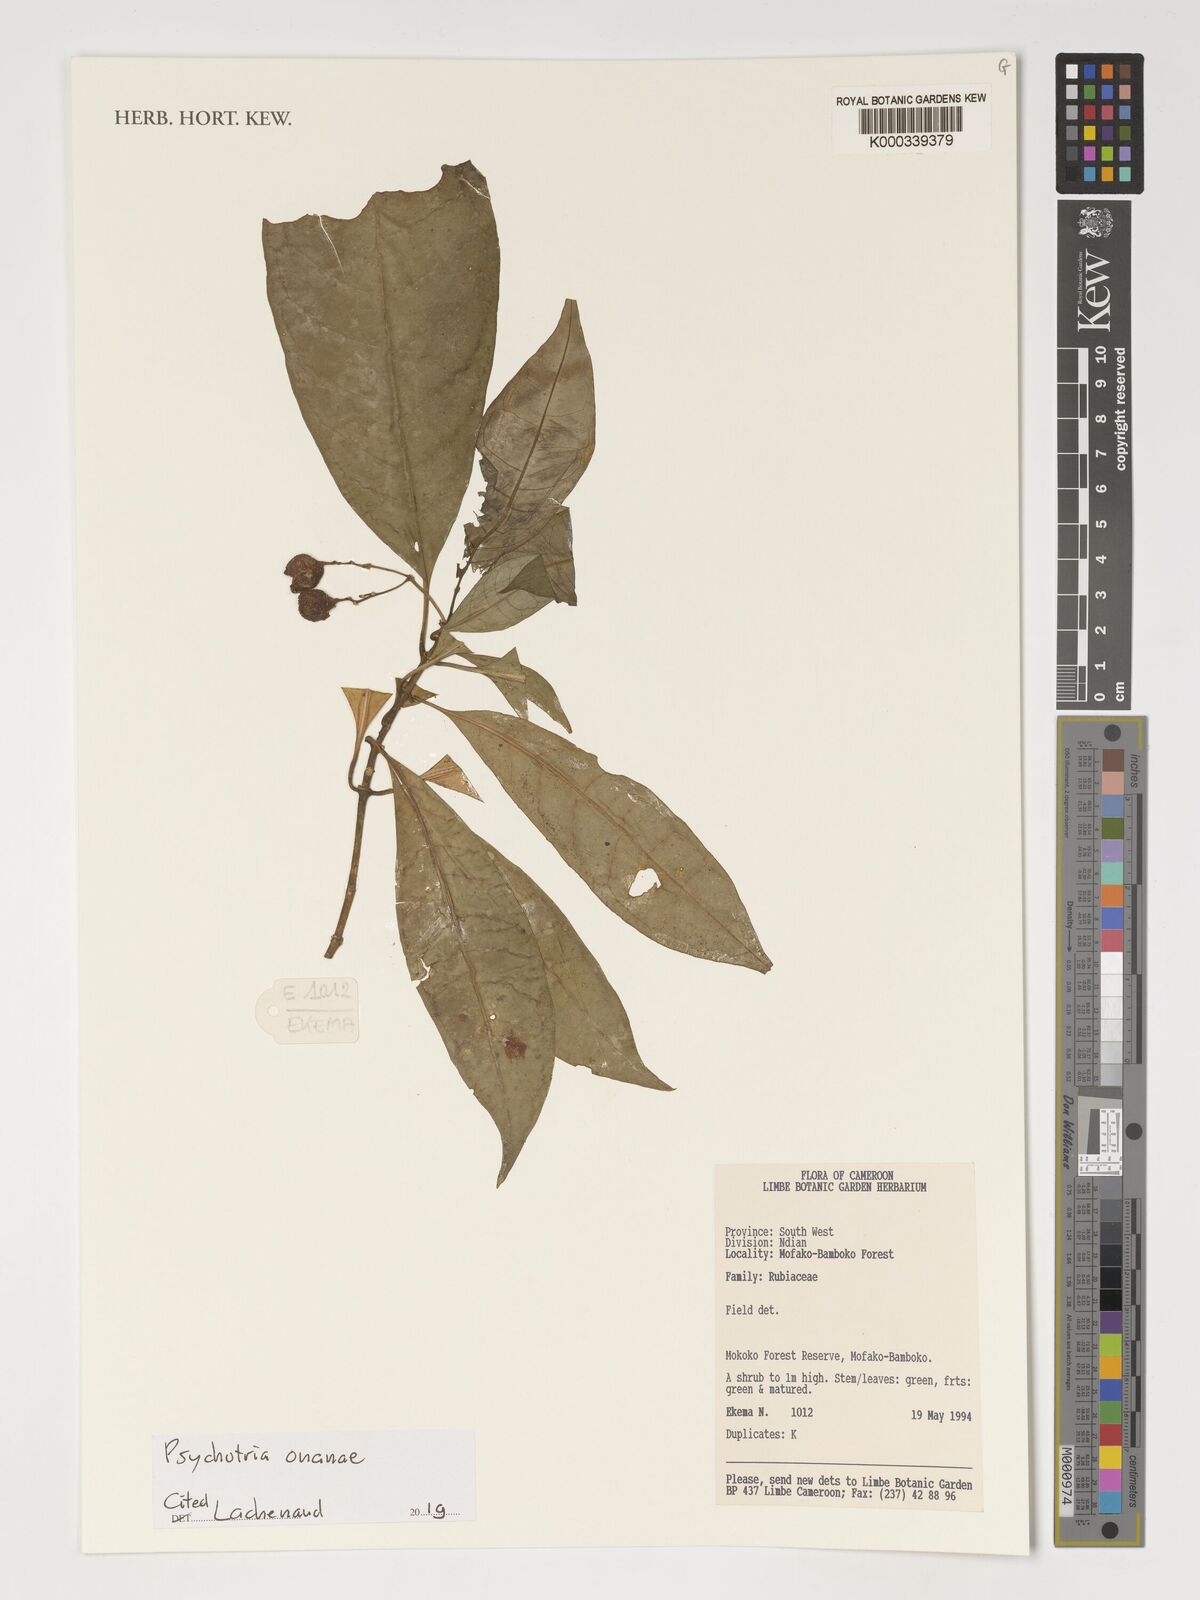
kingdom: Plantae
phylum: Tracheophyta
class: Magnoliopsida
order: Gentianales
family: Rubiaceae
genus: Psychotria
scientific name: Psychotria onanae
